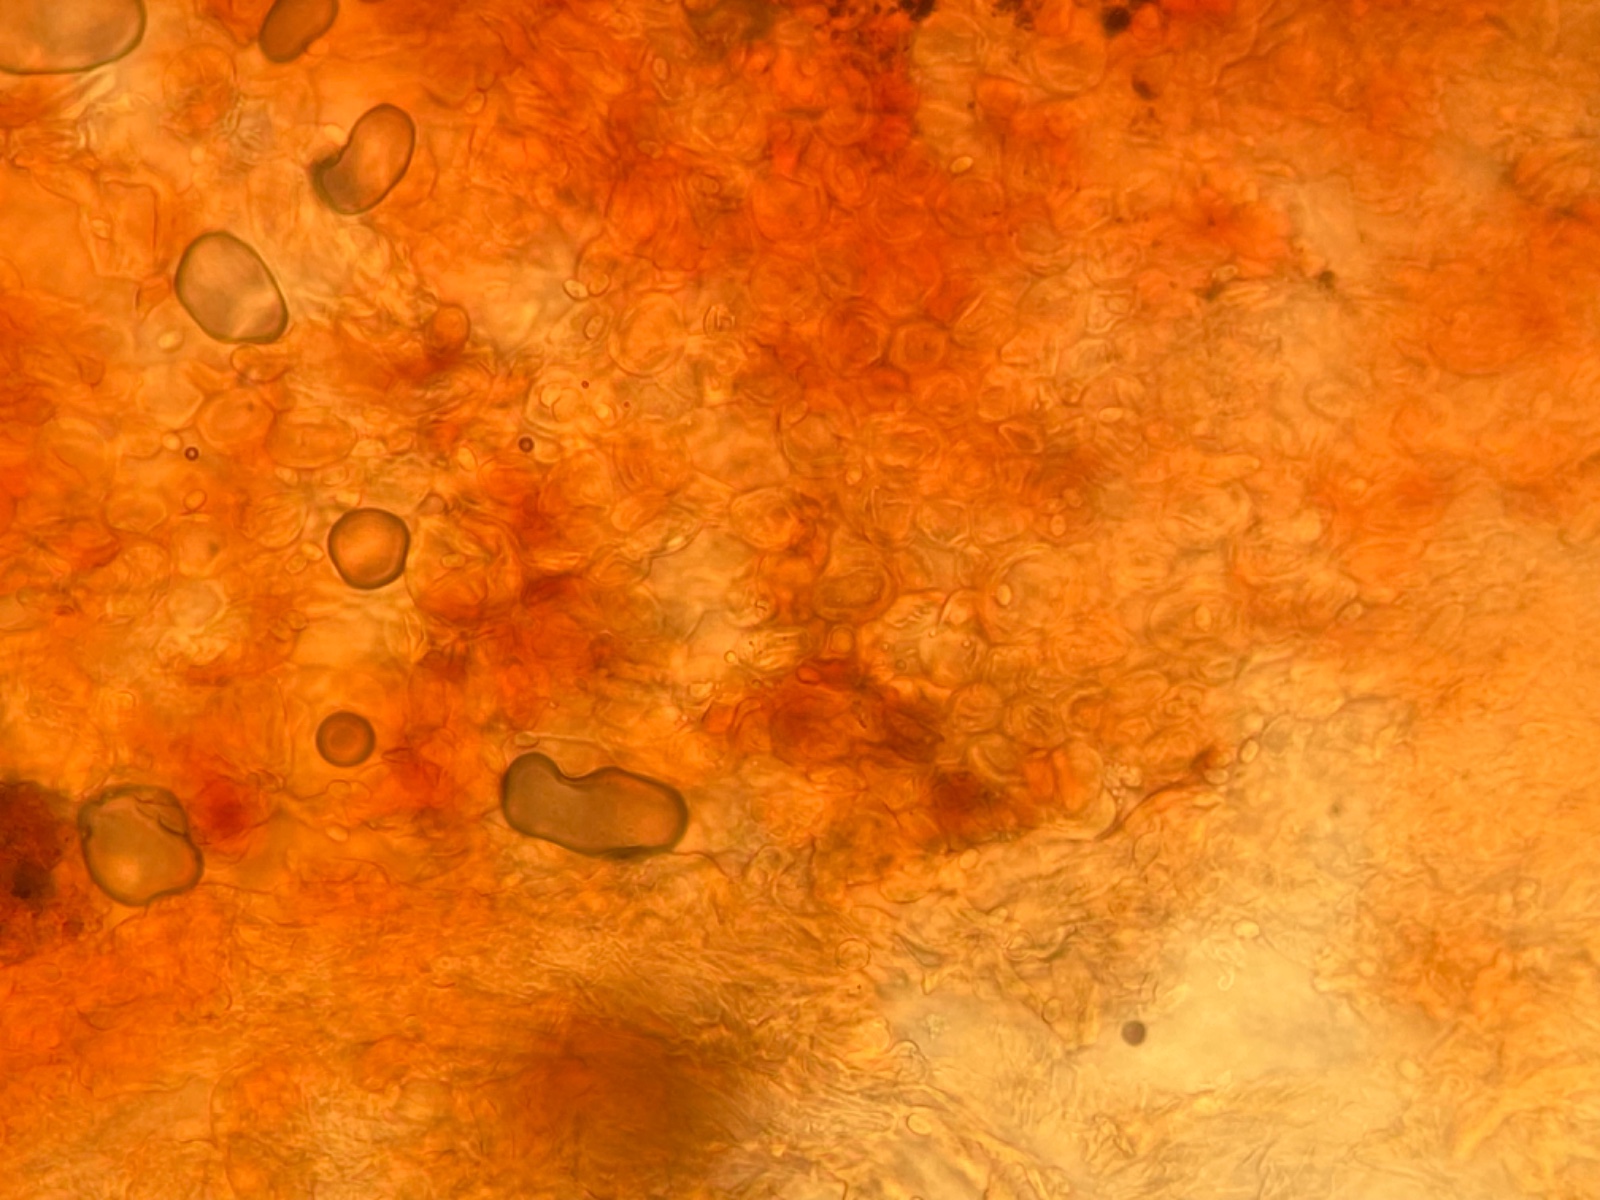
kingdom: Fungi
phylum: Basidiomycota
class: Agaricomycetes
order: Agaricales
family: Agaricaceae
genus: Lepiota
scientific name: Lepiota
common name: parasolhat
